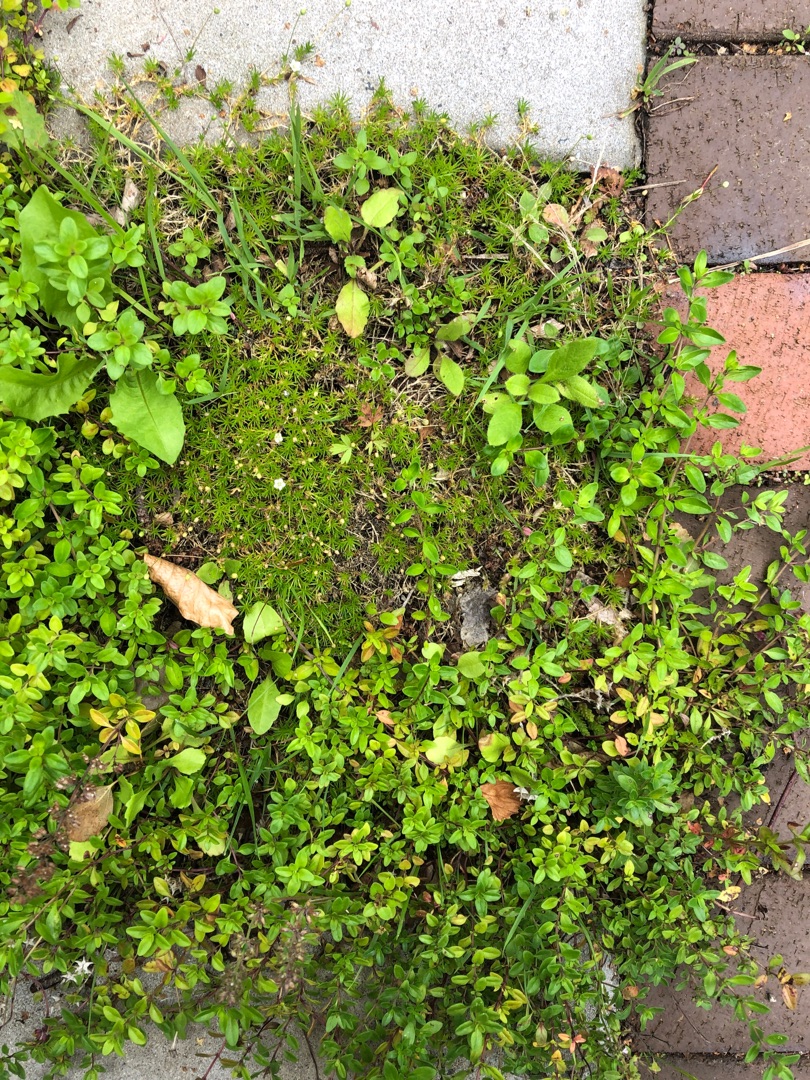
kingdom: Plantae
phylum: Tracheophyta
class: Magnoliopsida
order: Caryophyllales
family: Caryophyllaceae
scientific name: Caryophyllaceae
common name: Syl-firling
